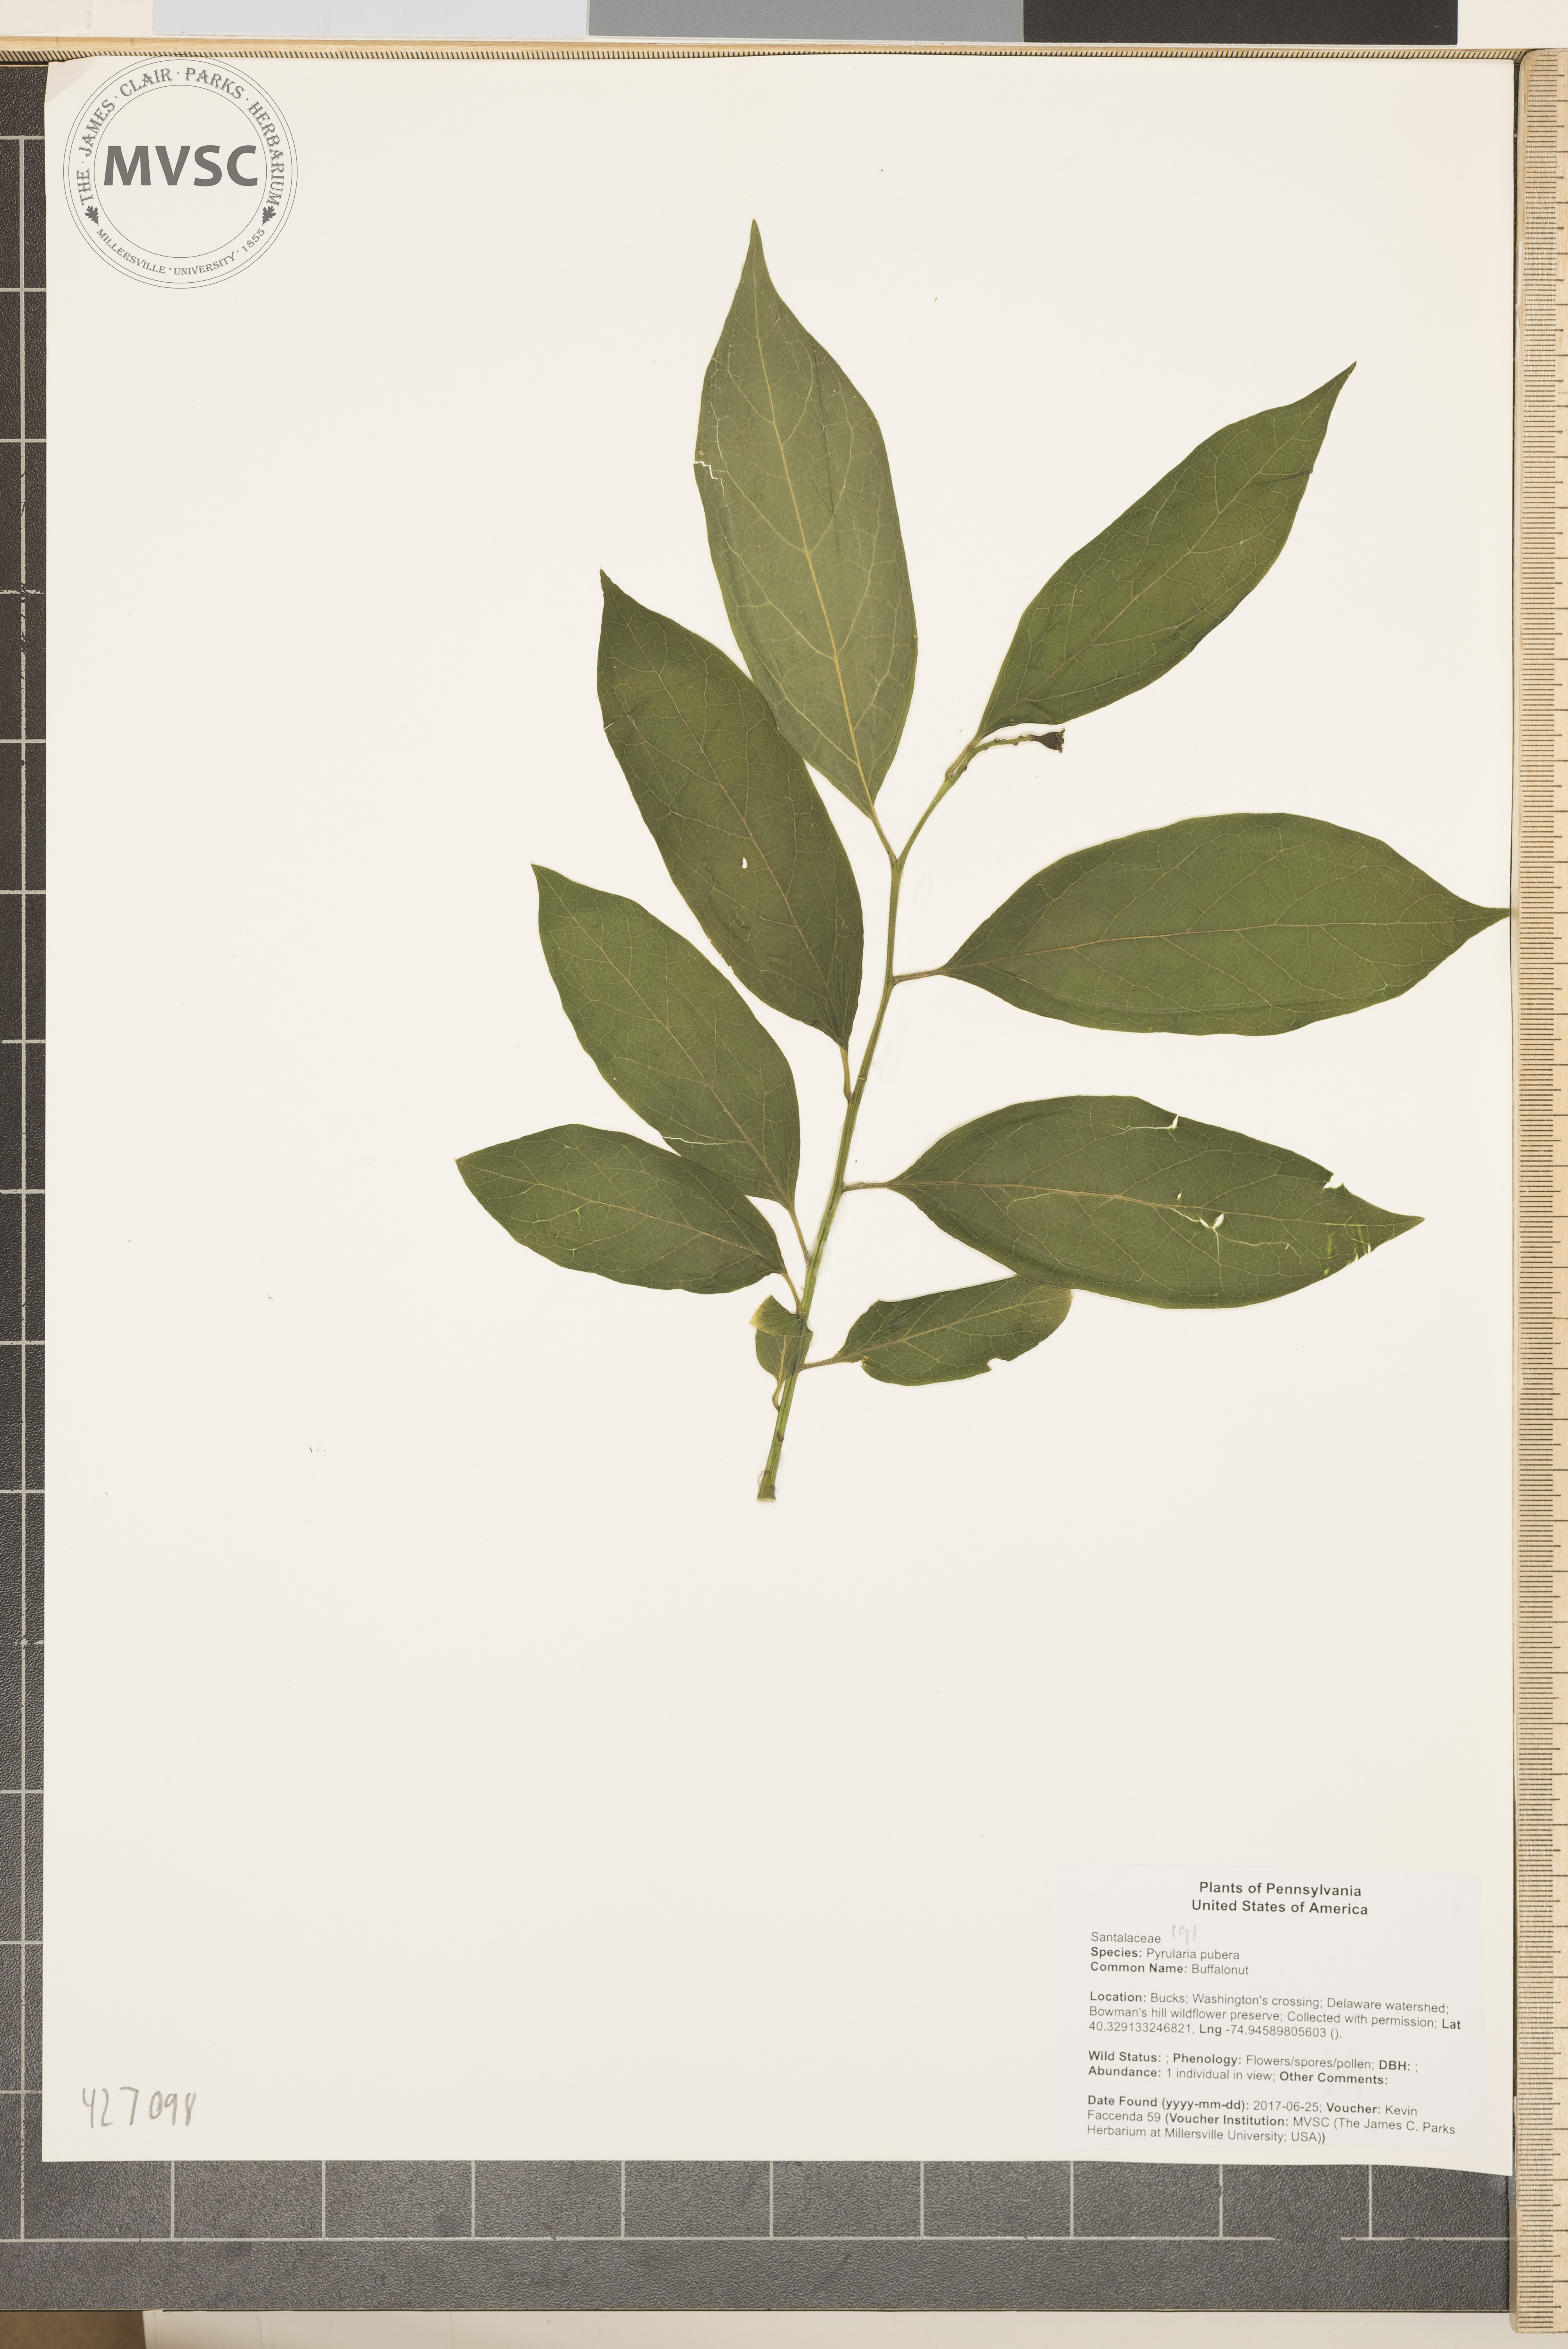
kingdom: Plantae
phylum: Tracheophyta
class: Magnoliopsida
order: Santalales
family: Cervantesiaceae
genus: Pyrularia
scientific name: Pyrularia pubera
